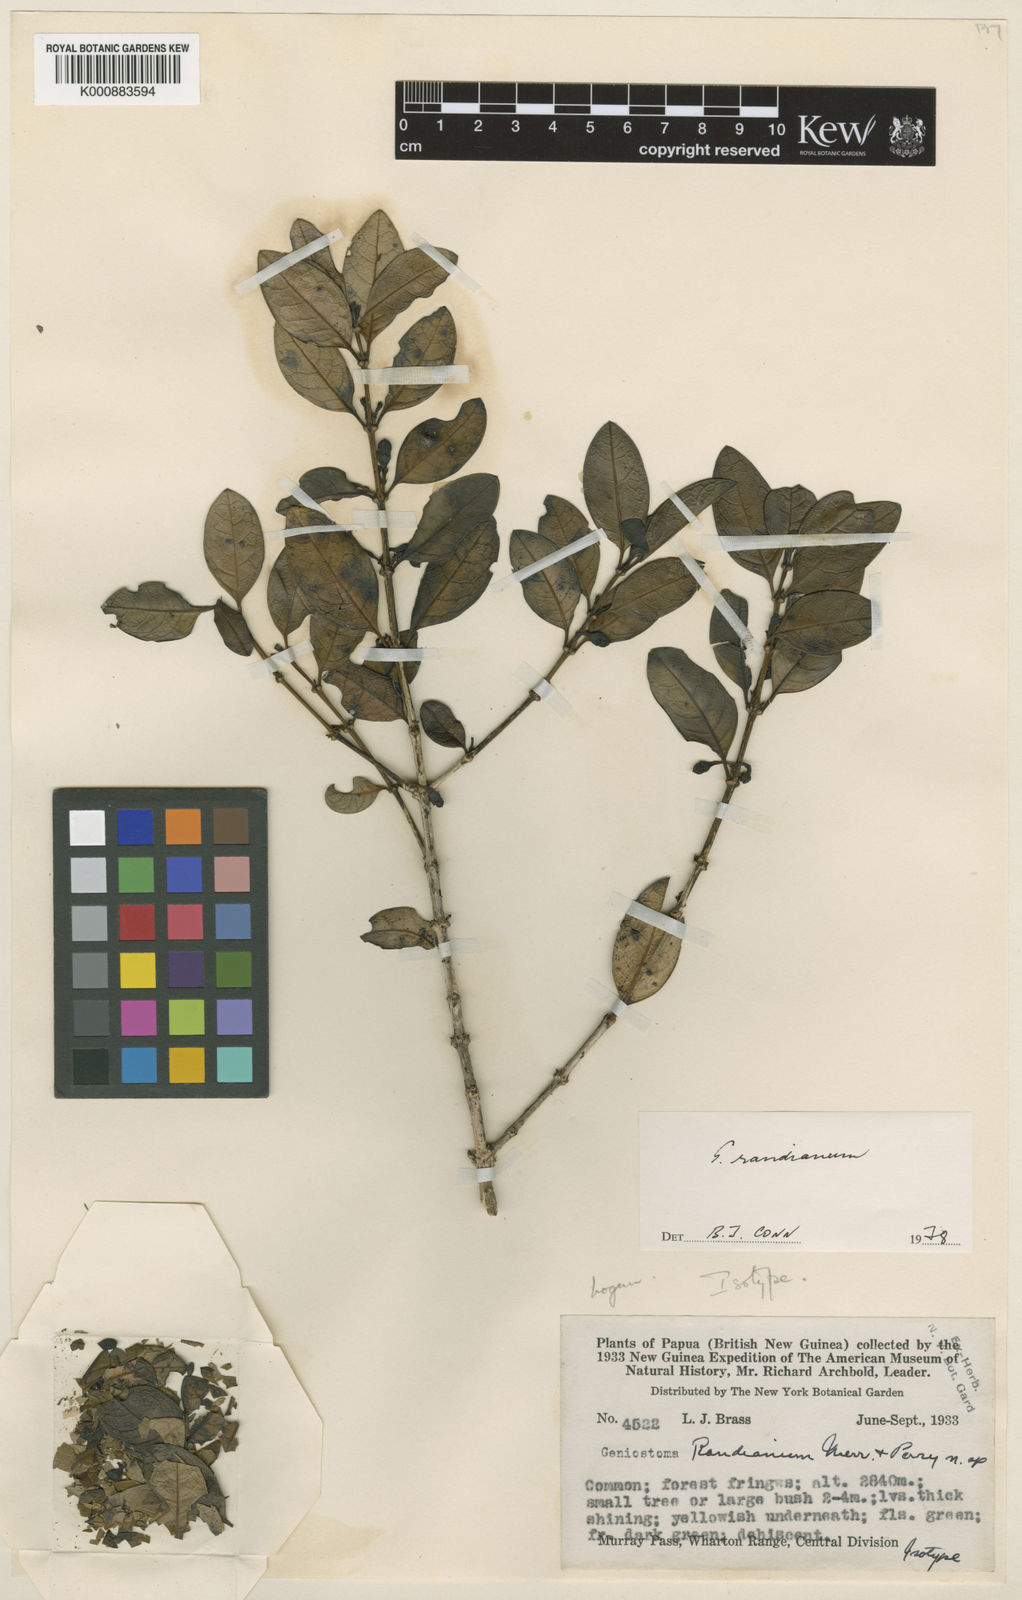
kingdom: Plantae
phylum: Tracheophyta
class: Magnoliopsida
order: Gentianales
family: Loganiaceae
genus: Geniostoma
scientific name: Geniostoma randianum
